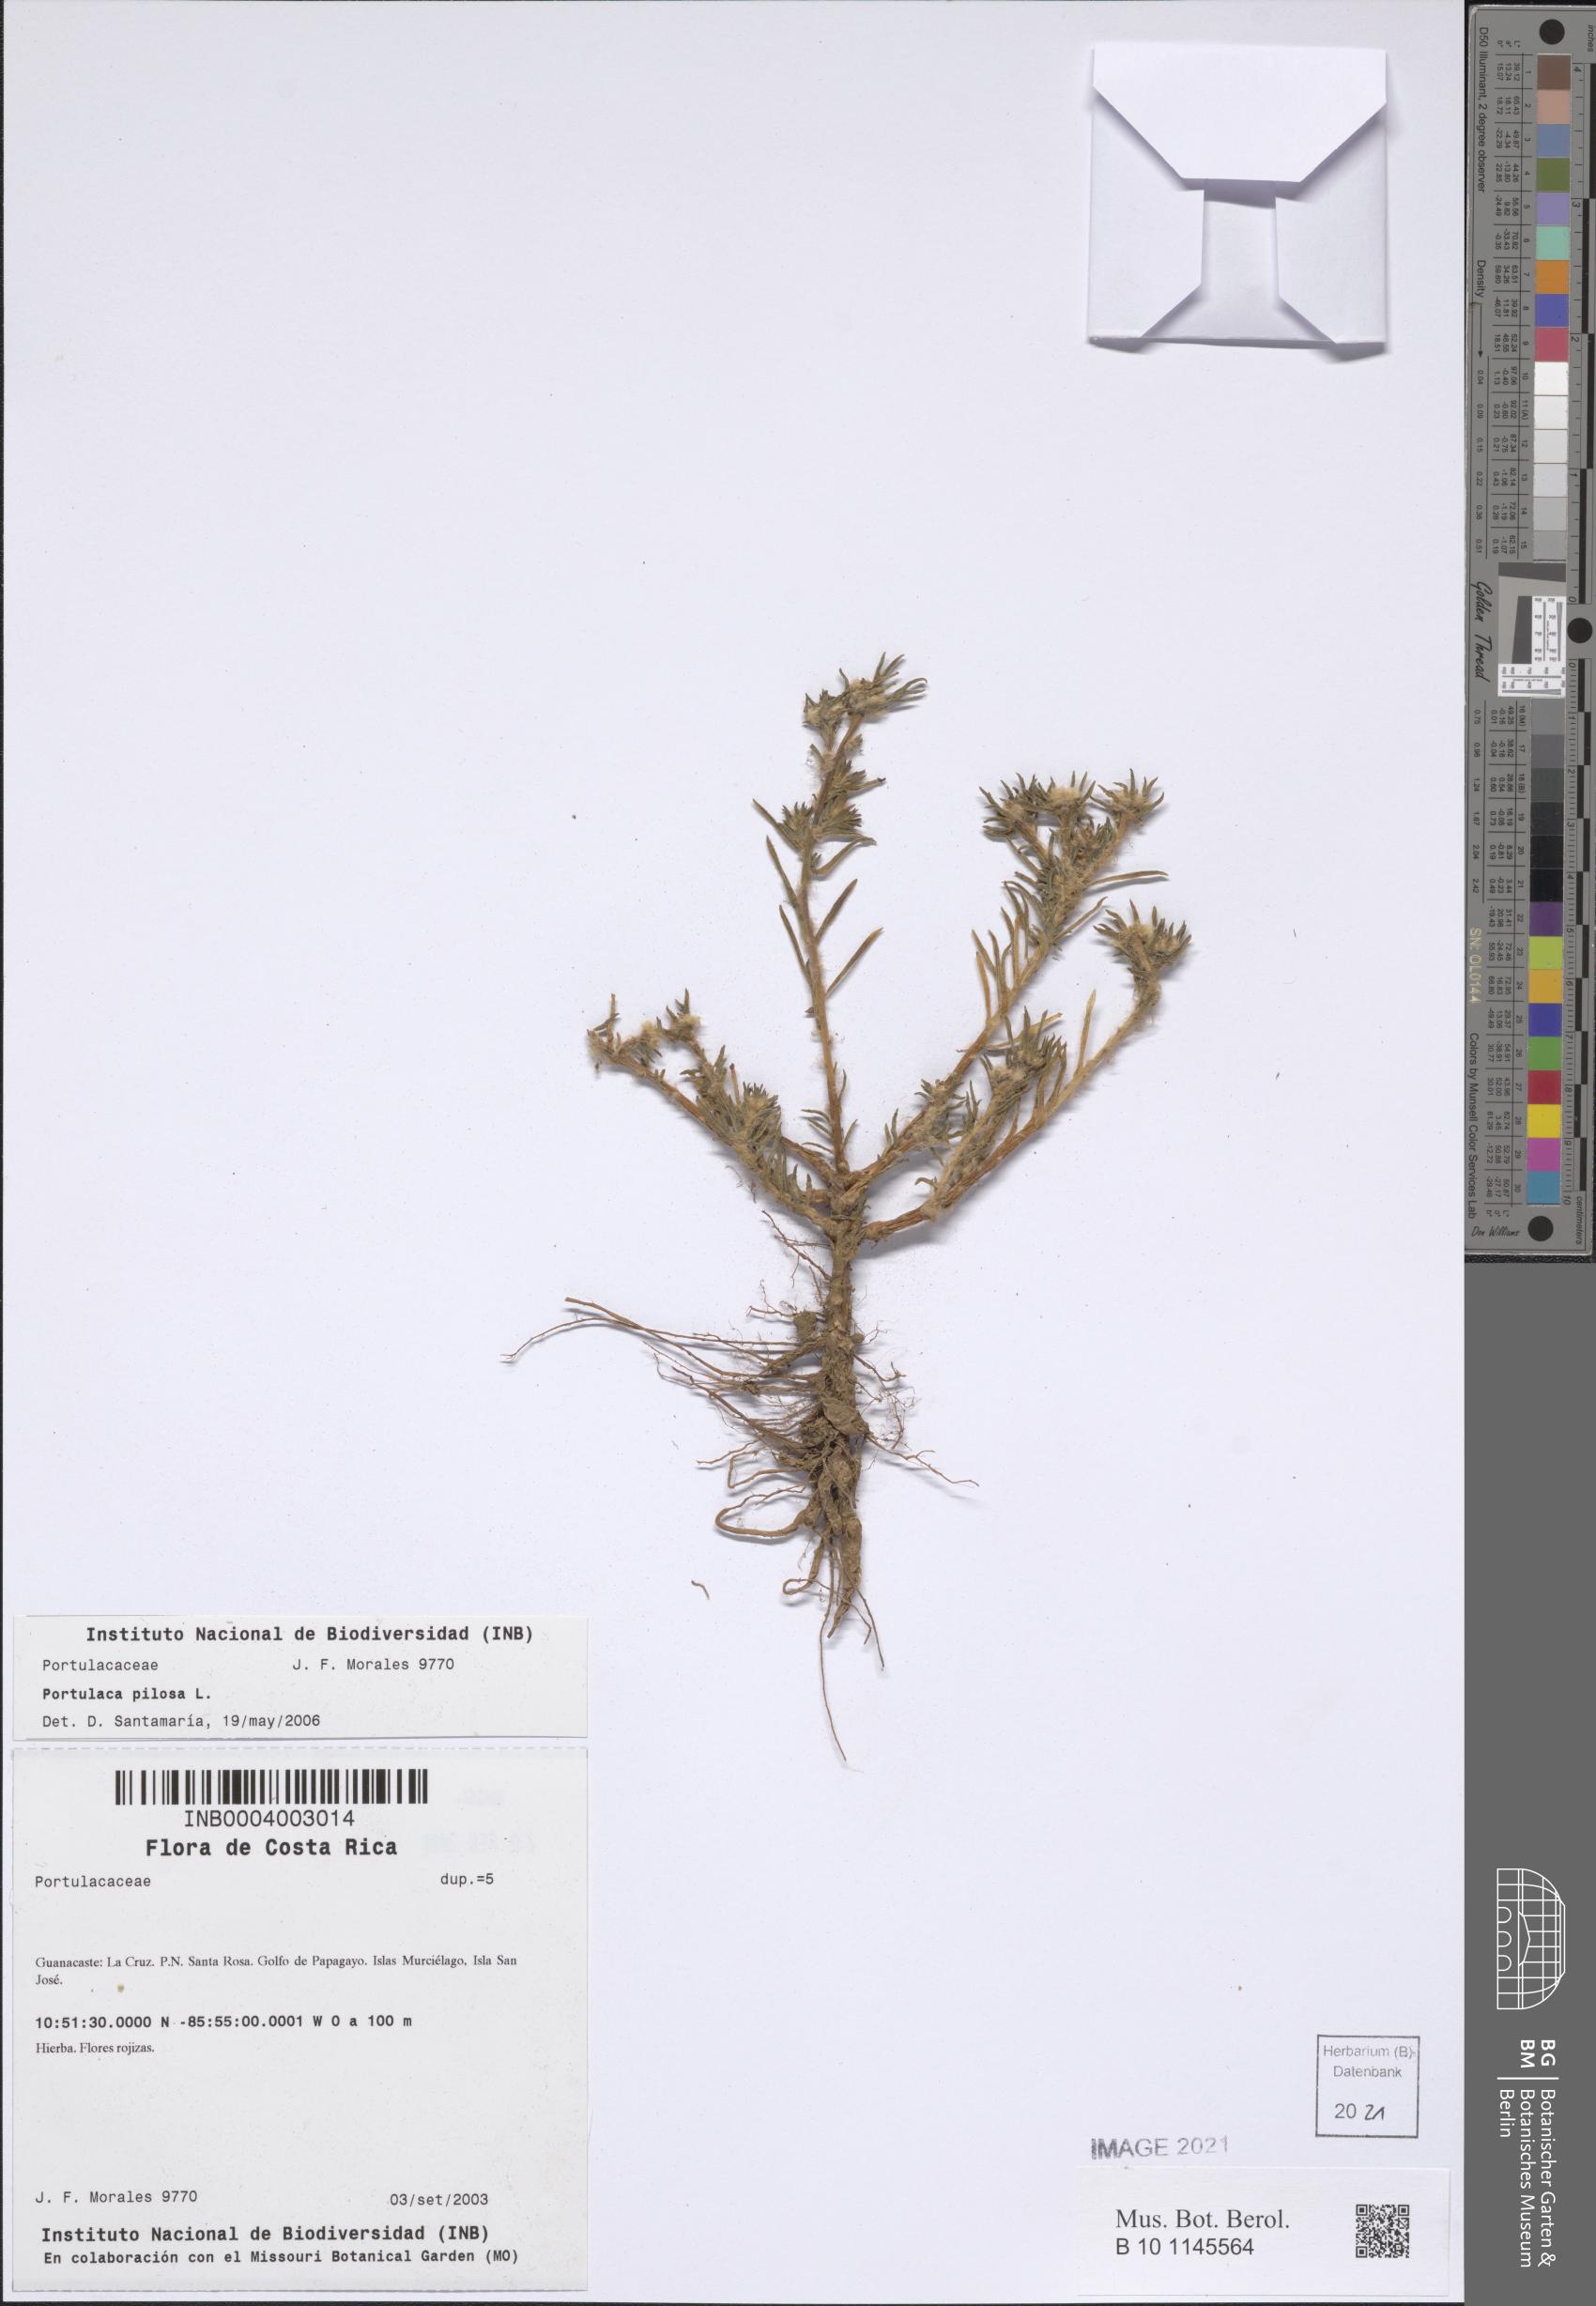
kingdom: Plantae
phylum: Tracheophyta
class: Magnoliopsida
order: Caryophyllales
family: Portulacaceae
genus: Portulaca
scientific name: Portulaca pilosa
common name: Kiss me quick
